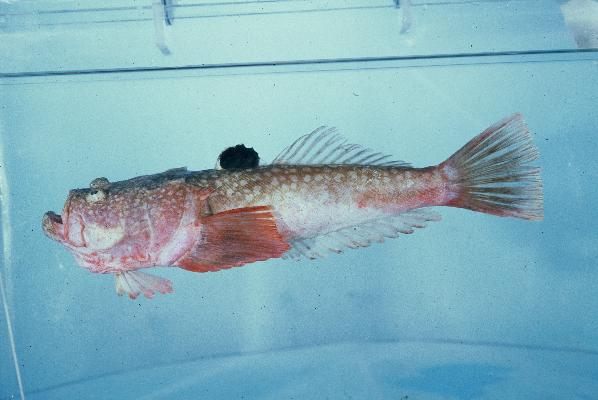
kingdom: Animalia
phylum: Chordata
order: Perciformes
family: Uranoscopidae
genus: Uranoscopus
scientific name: Uranoscopus archionema
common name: Stargazer
